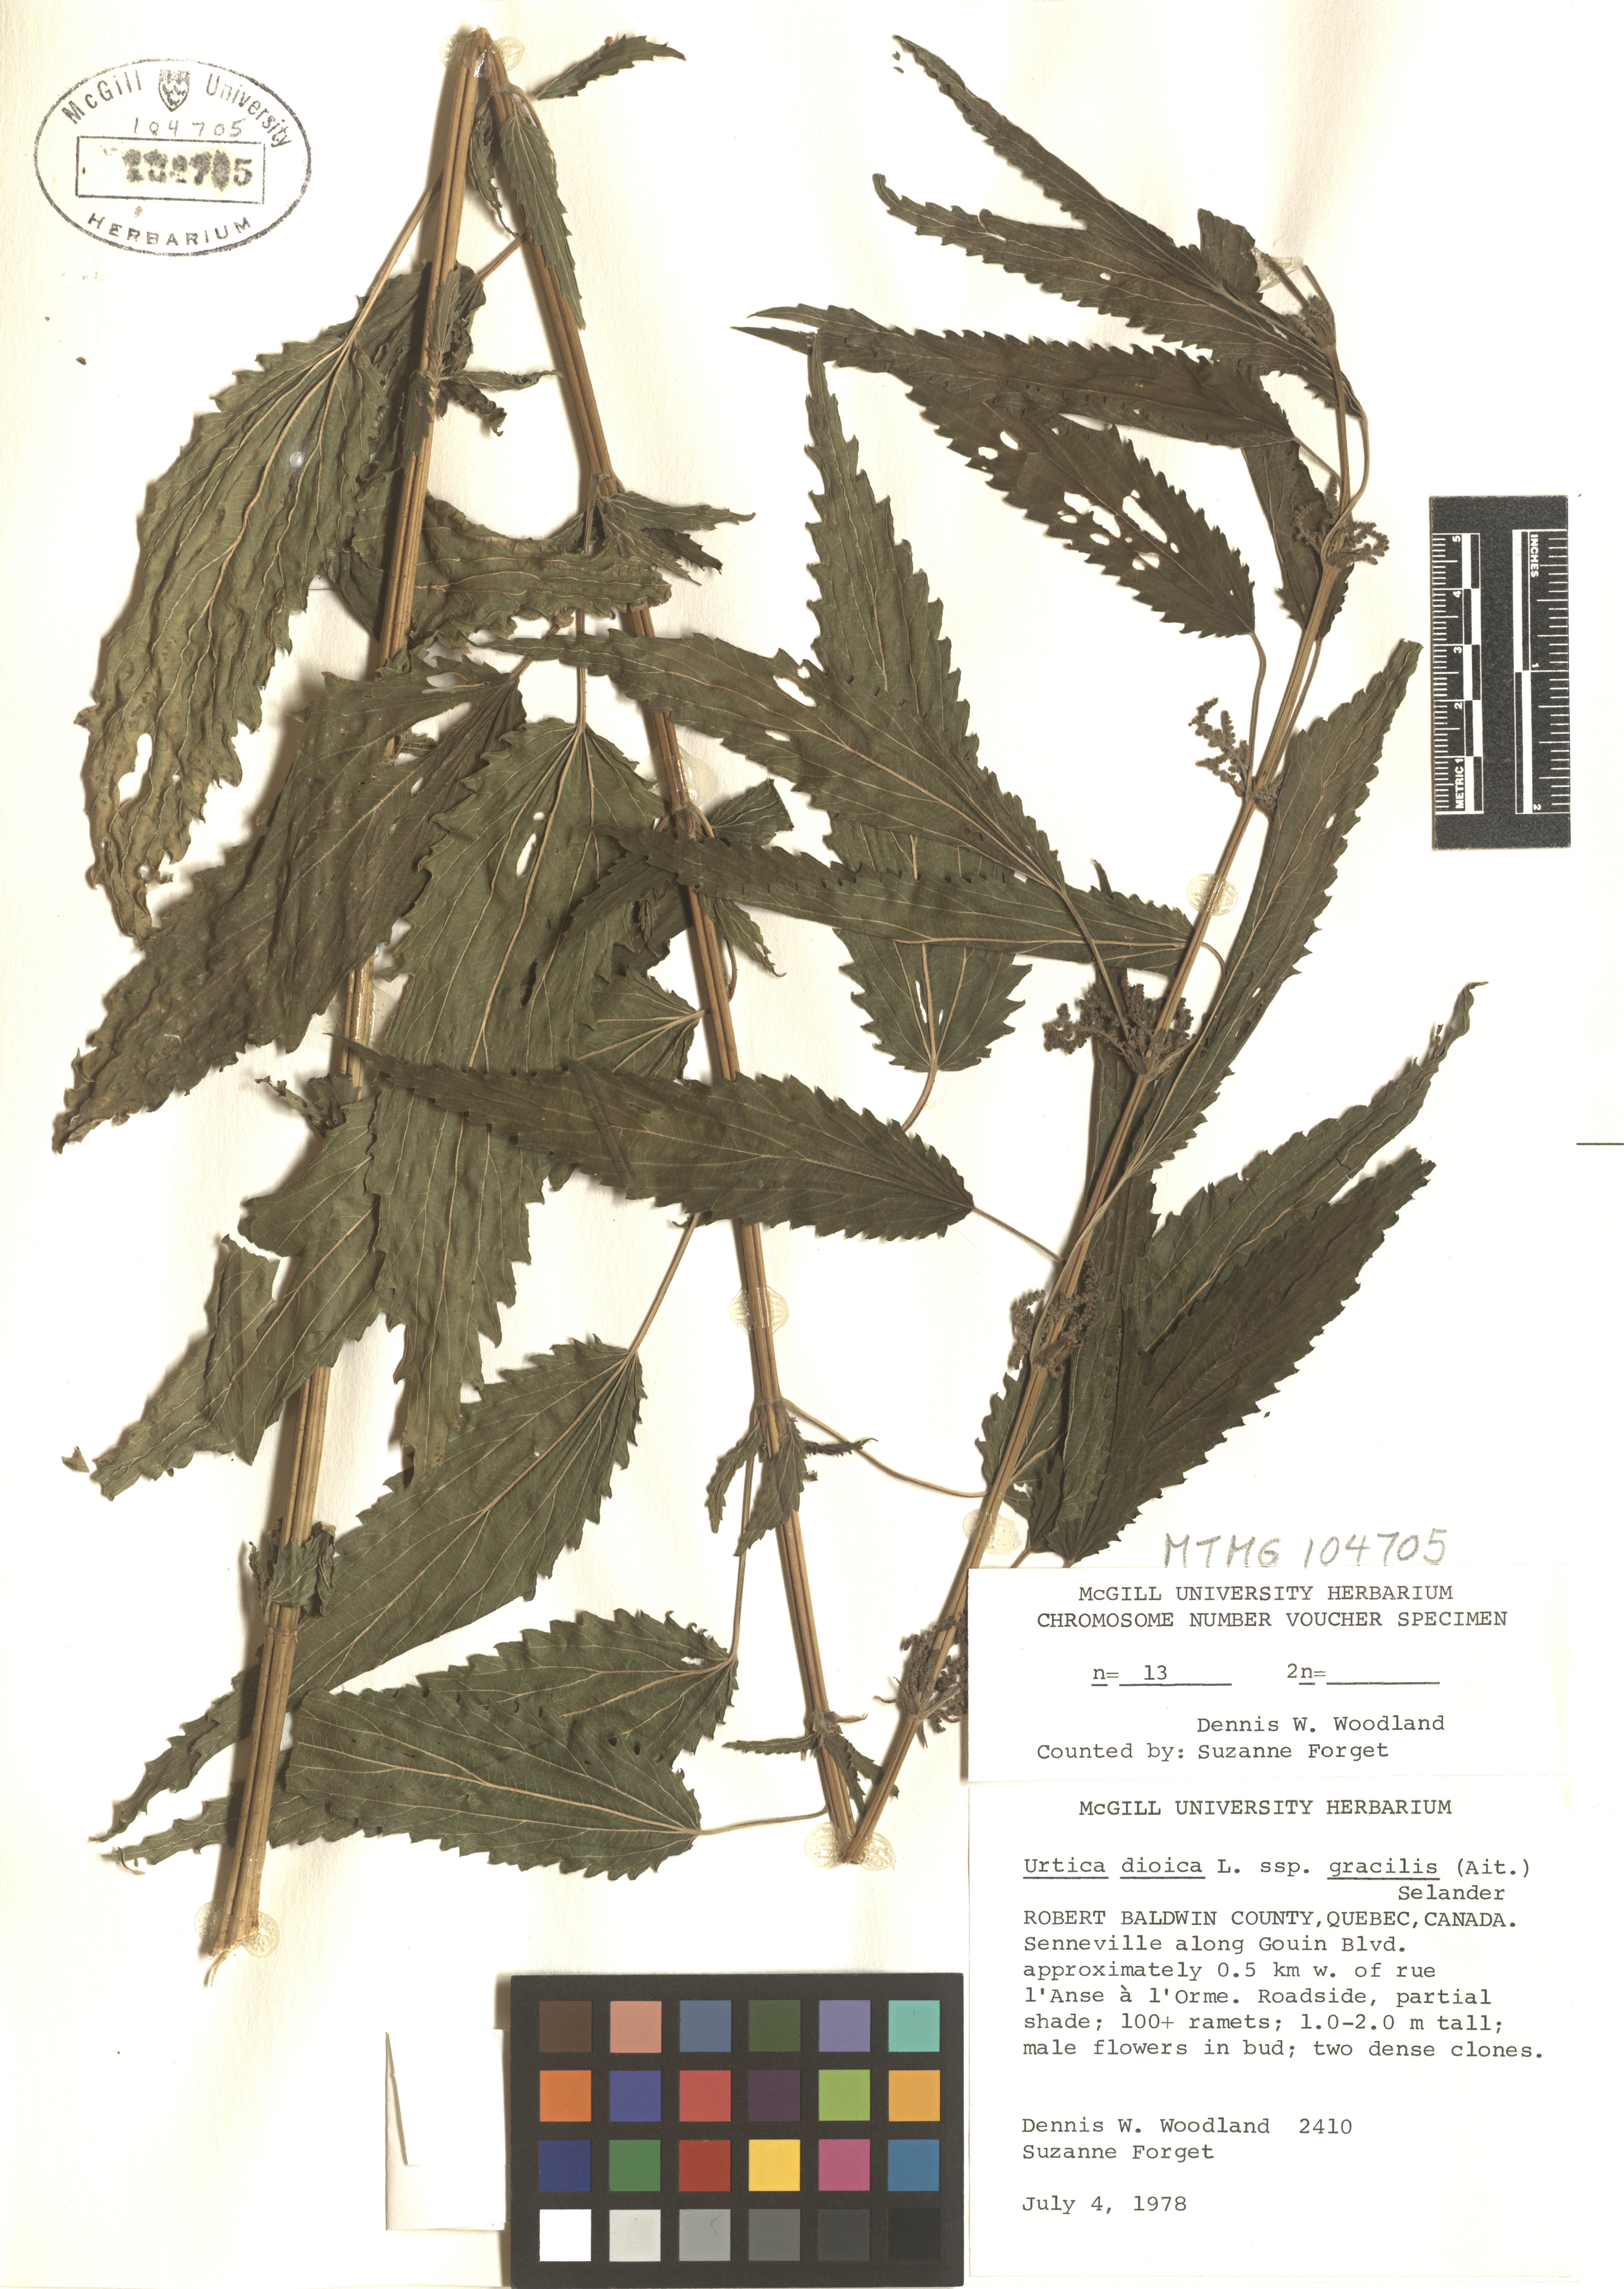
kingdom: Plantae
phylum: Tracheophyta
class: Magnoliopsida
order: Rosales
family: Urticaceae
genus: Urtica
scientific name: Urtica gracilis
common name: Slender stinging nettle
